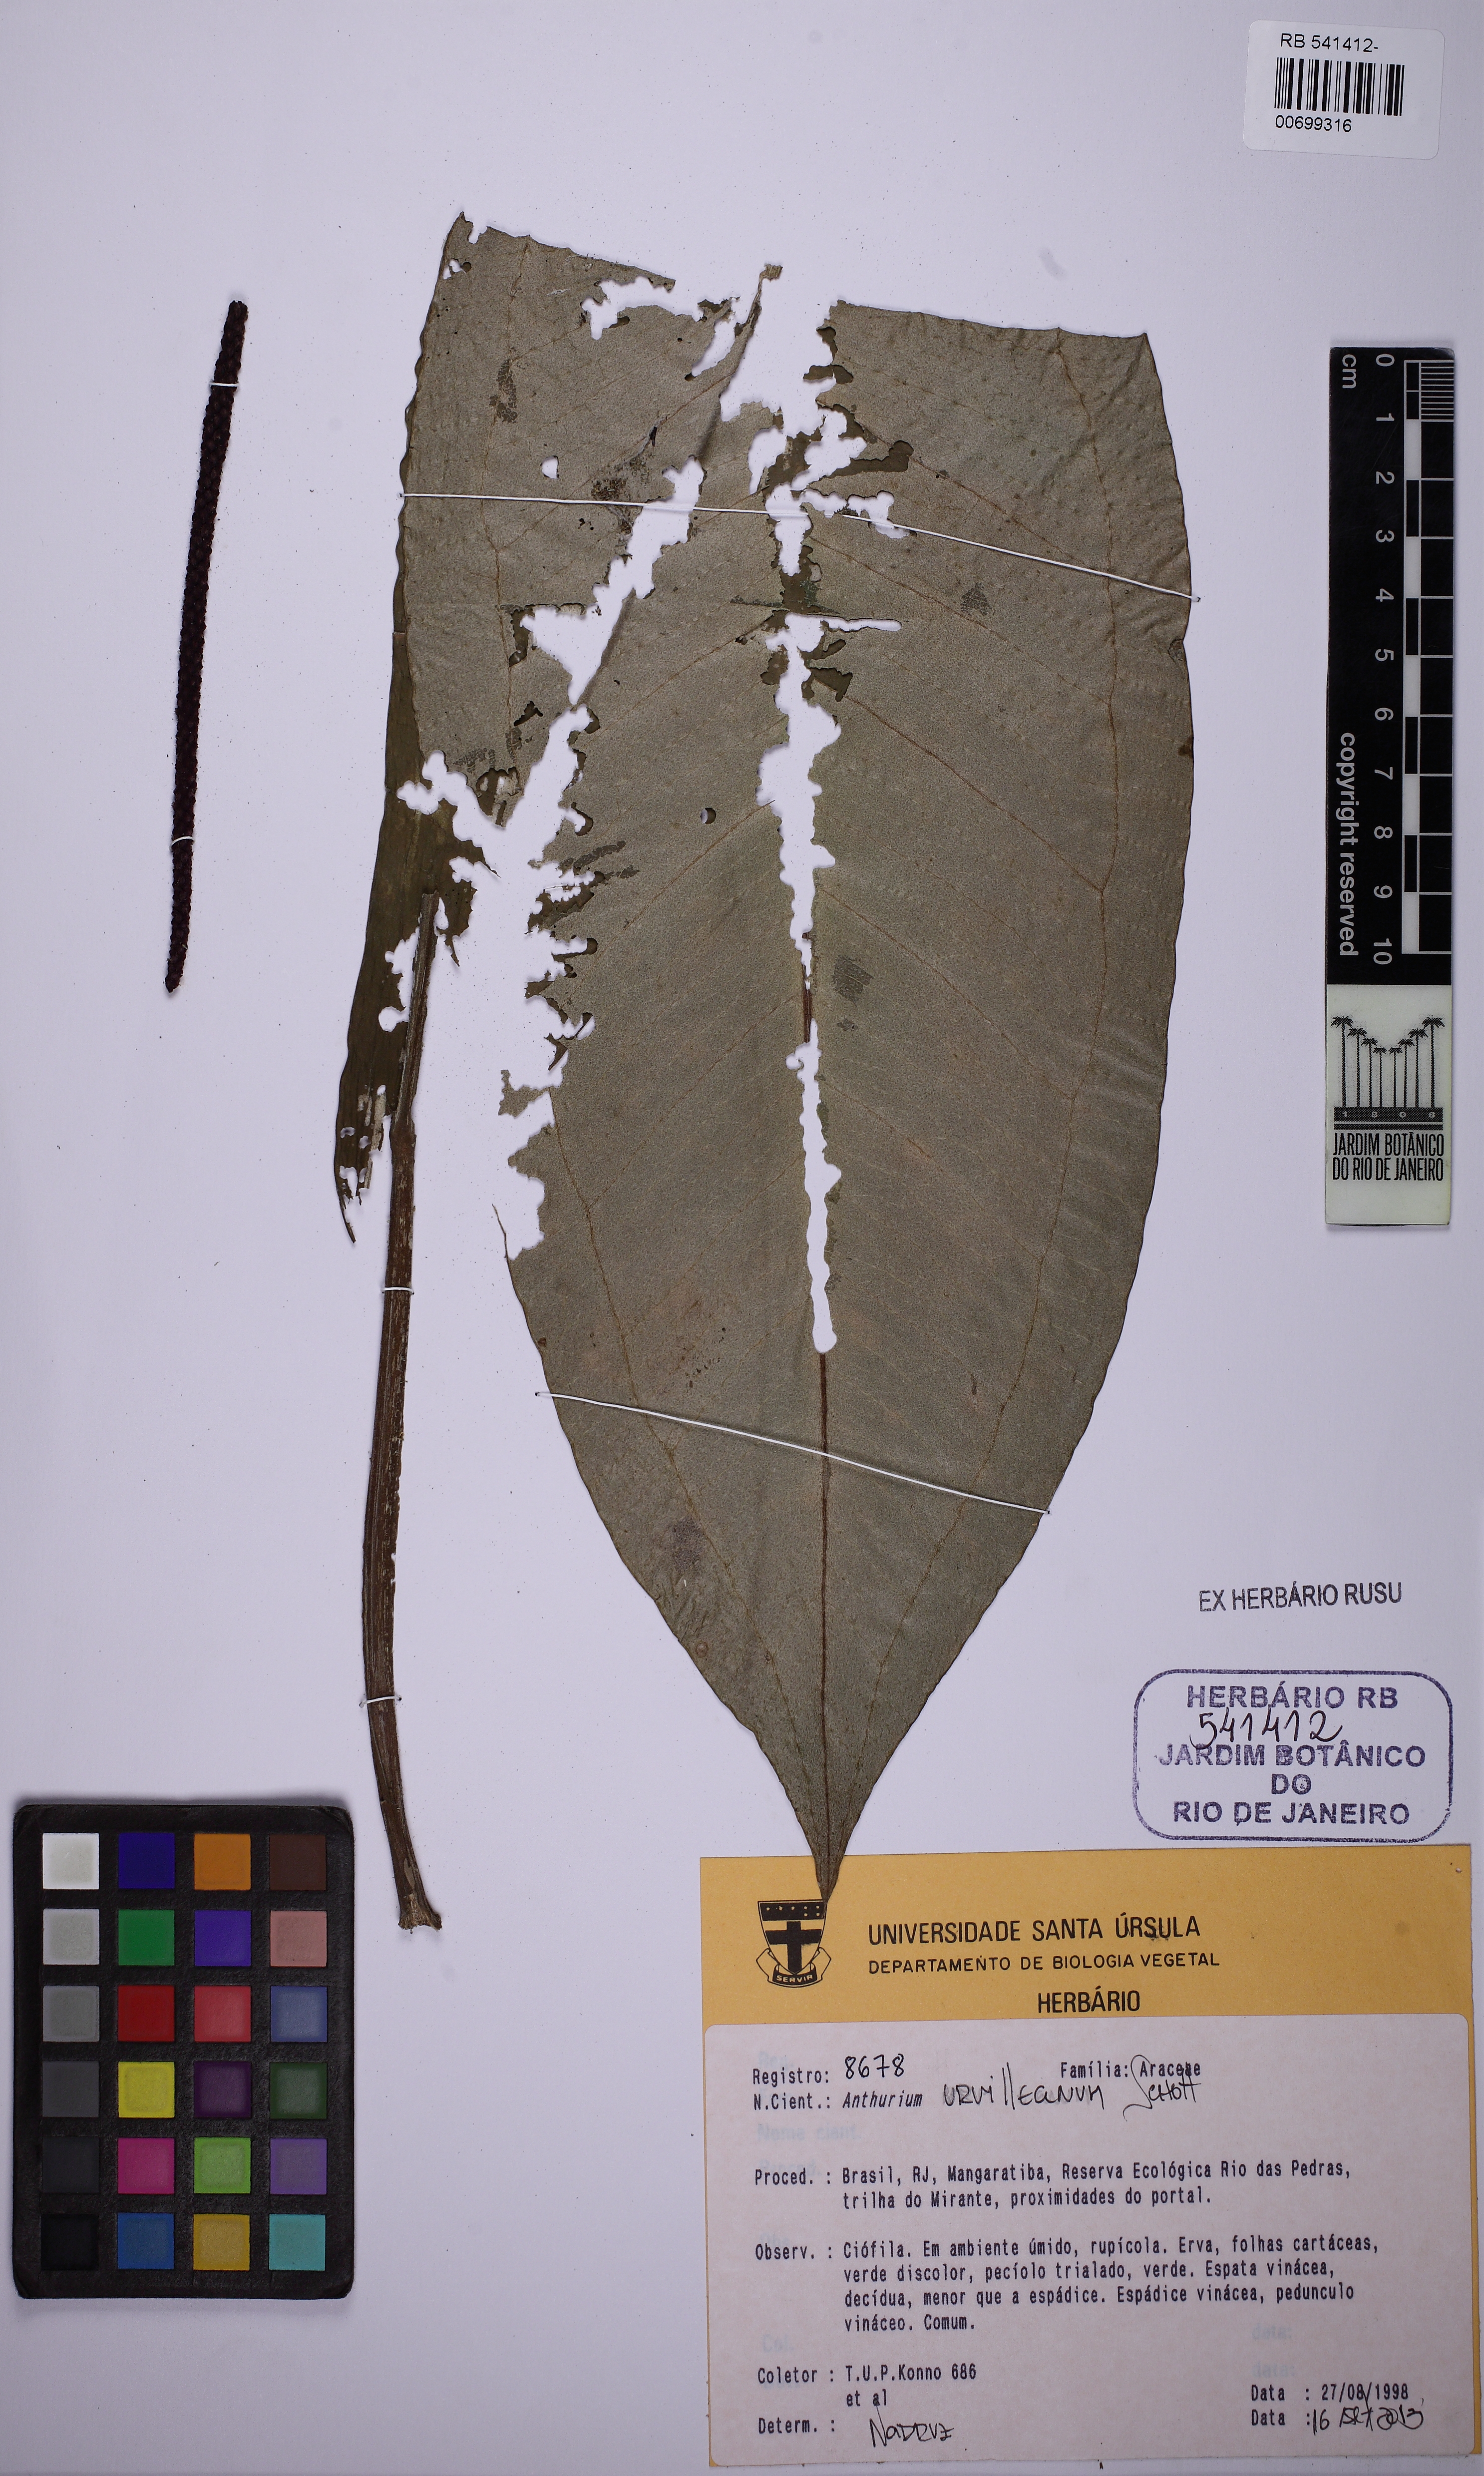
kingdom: Plantae
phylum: Tracheophyta
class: Liliopsida
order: Alismatales
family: Araceae
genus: Anthurium
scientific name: Anthurium urvilleanum
